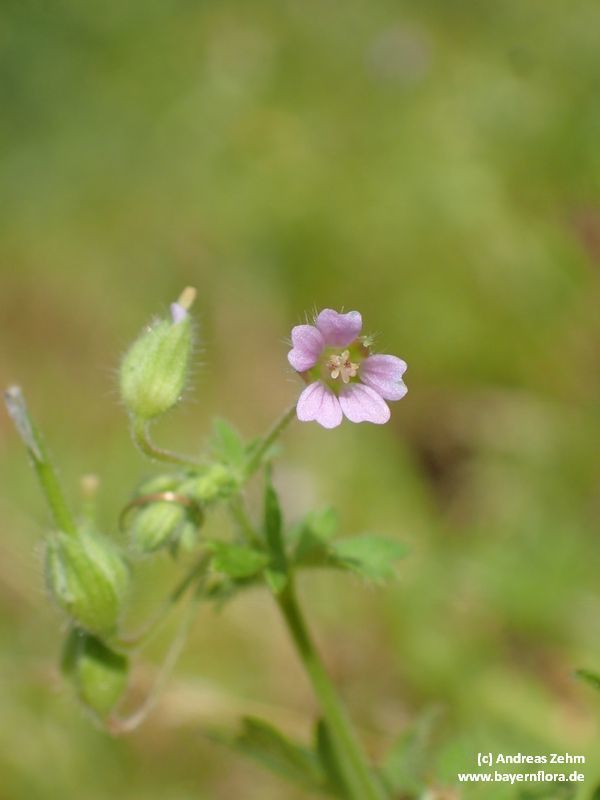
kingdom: Plantae
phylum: Tracheophyta
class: Magnoliopsida
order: Geraniales
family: Geraniaceae
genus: Geranium
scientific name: Geranium pusillum
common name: Small geranium
